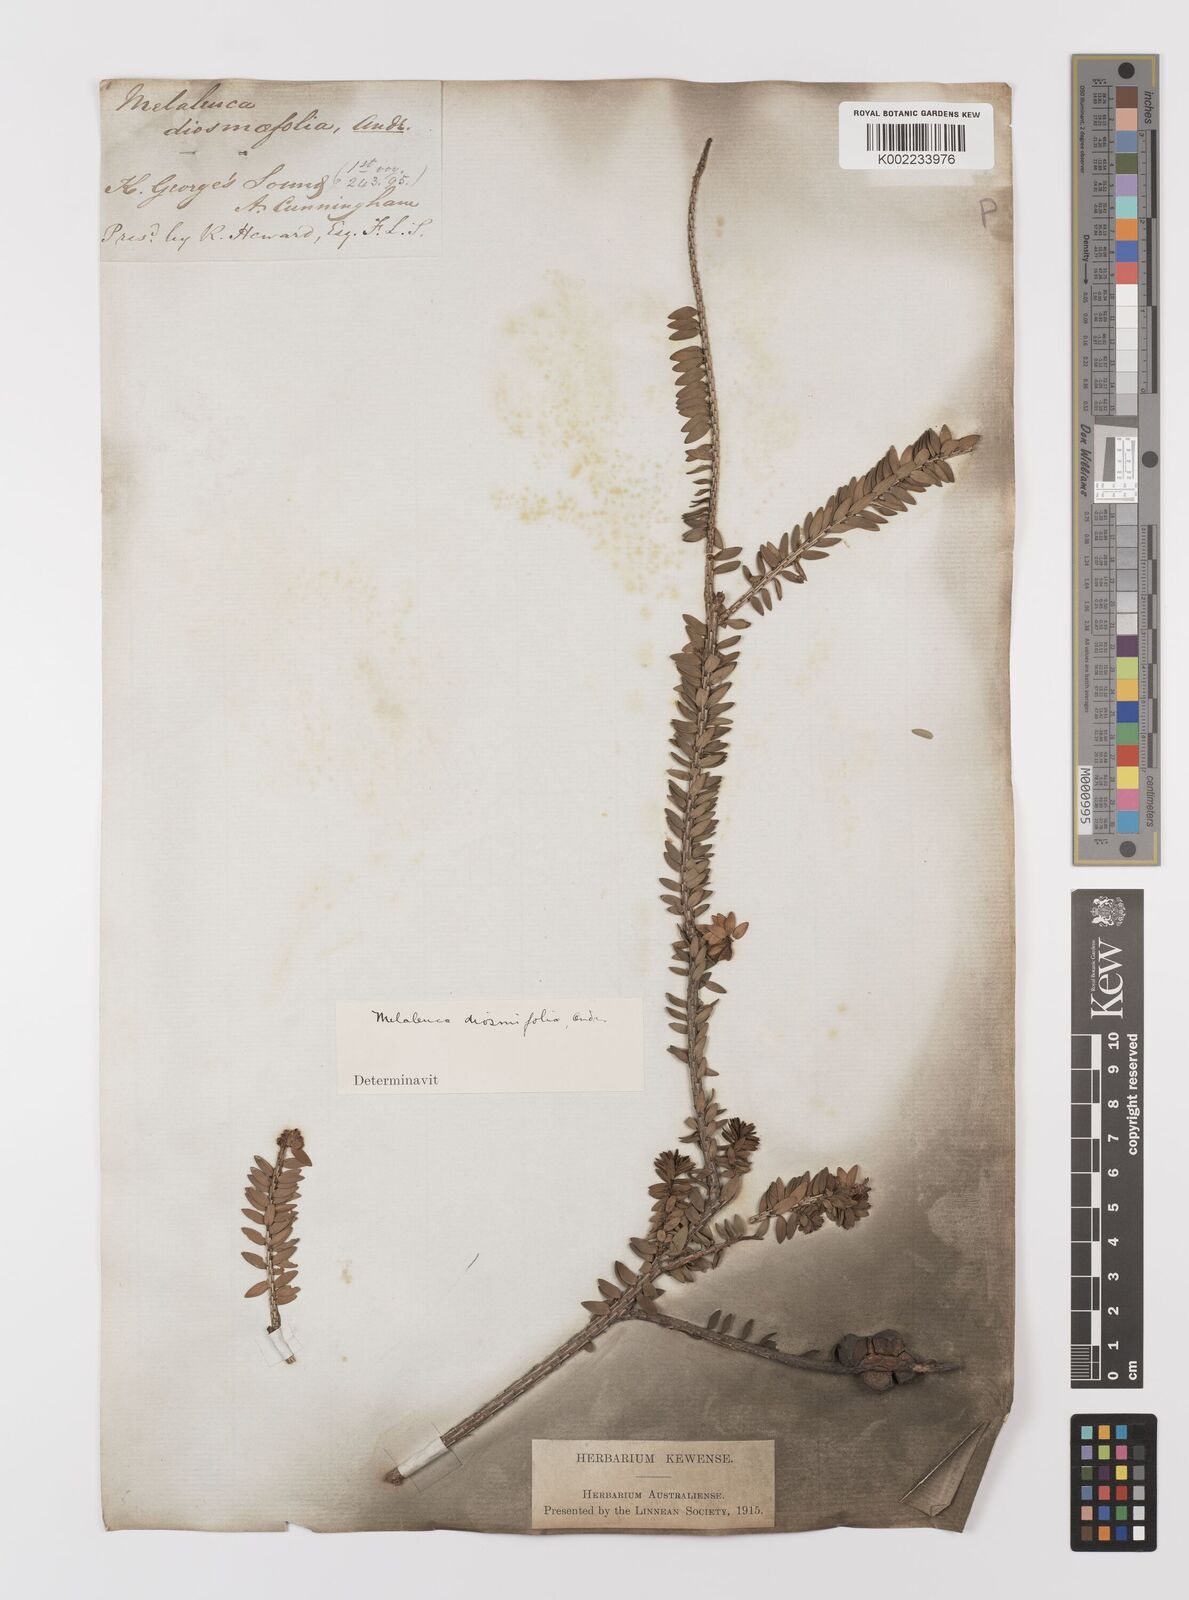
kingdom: Plantae
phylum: Tracheophyta
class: Magnoliopsida
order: Myrtales
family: Myrtaceae
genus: Melaleuca
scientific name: Melaleuca diosmifolia
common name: Green honey myrtle
